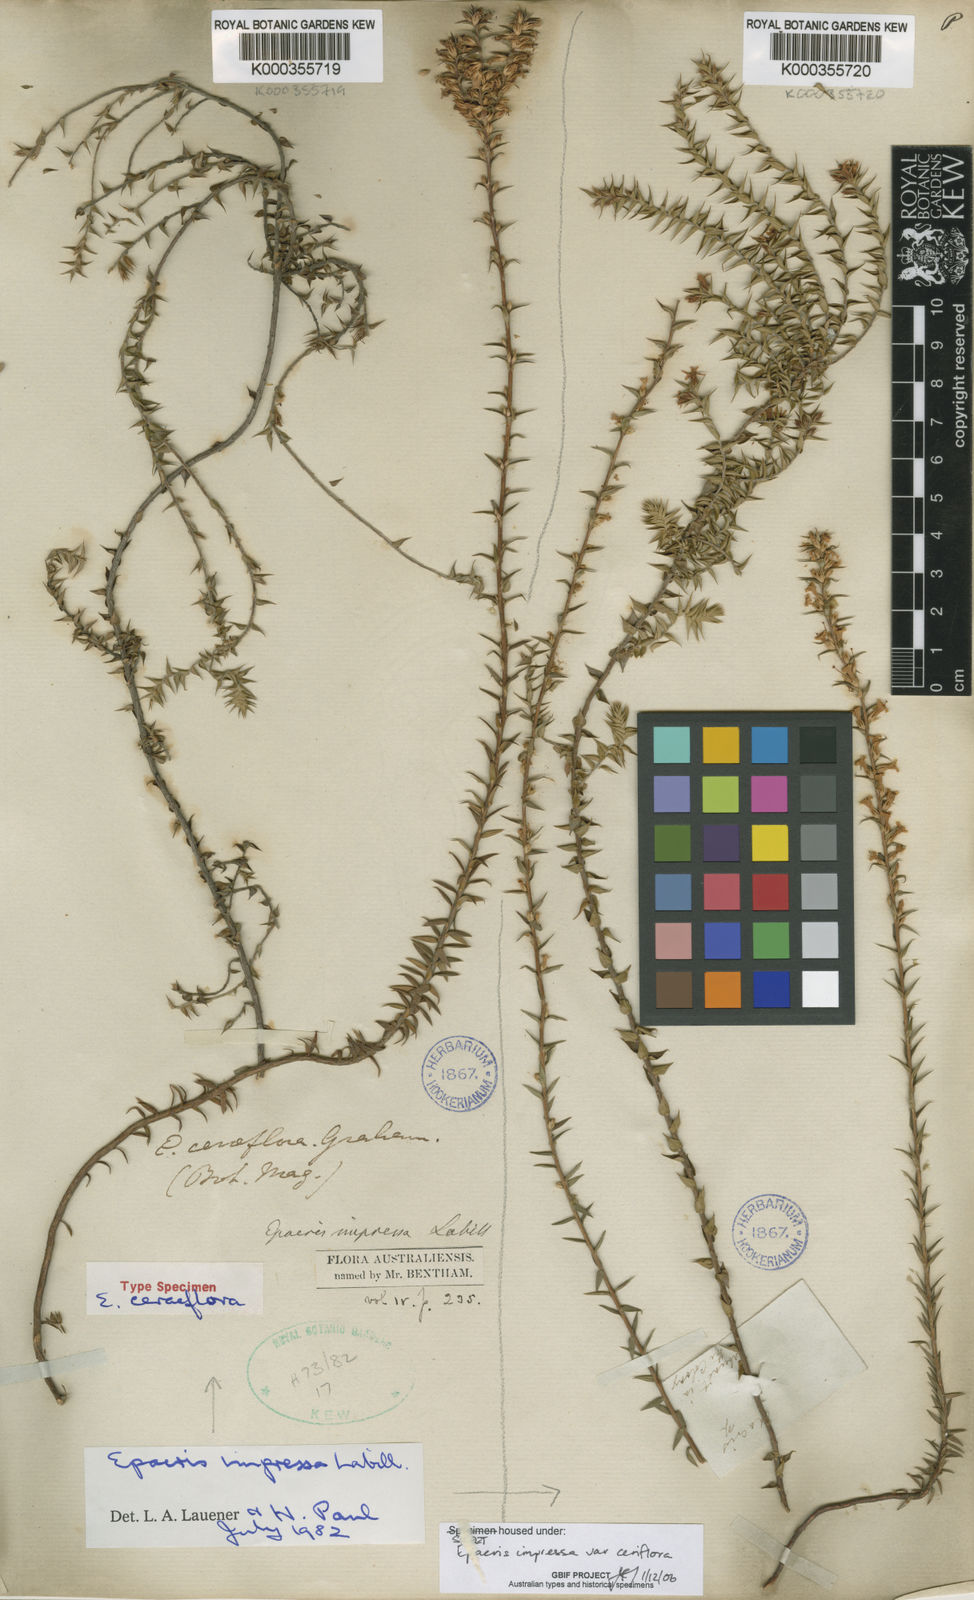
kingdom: Plantae
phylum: Tracheophyta
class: Magnoliopsida
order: Ericales
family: Ericaceae
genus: Epacris
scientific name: Epacris impressa
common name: Common-heath
